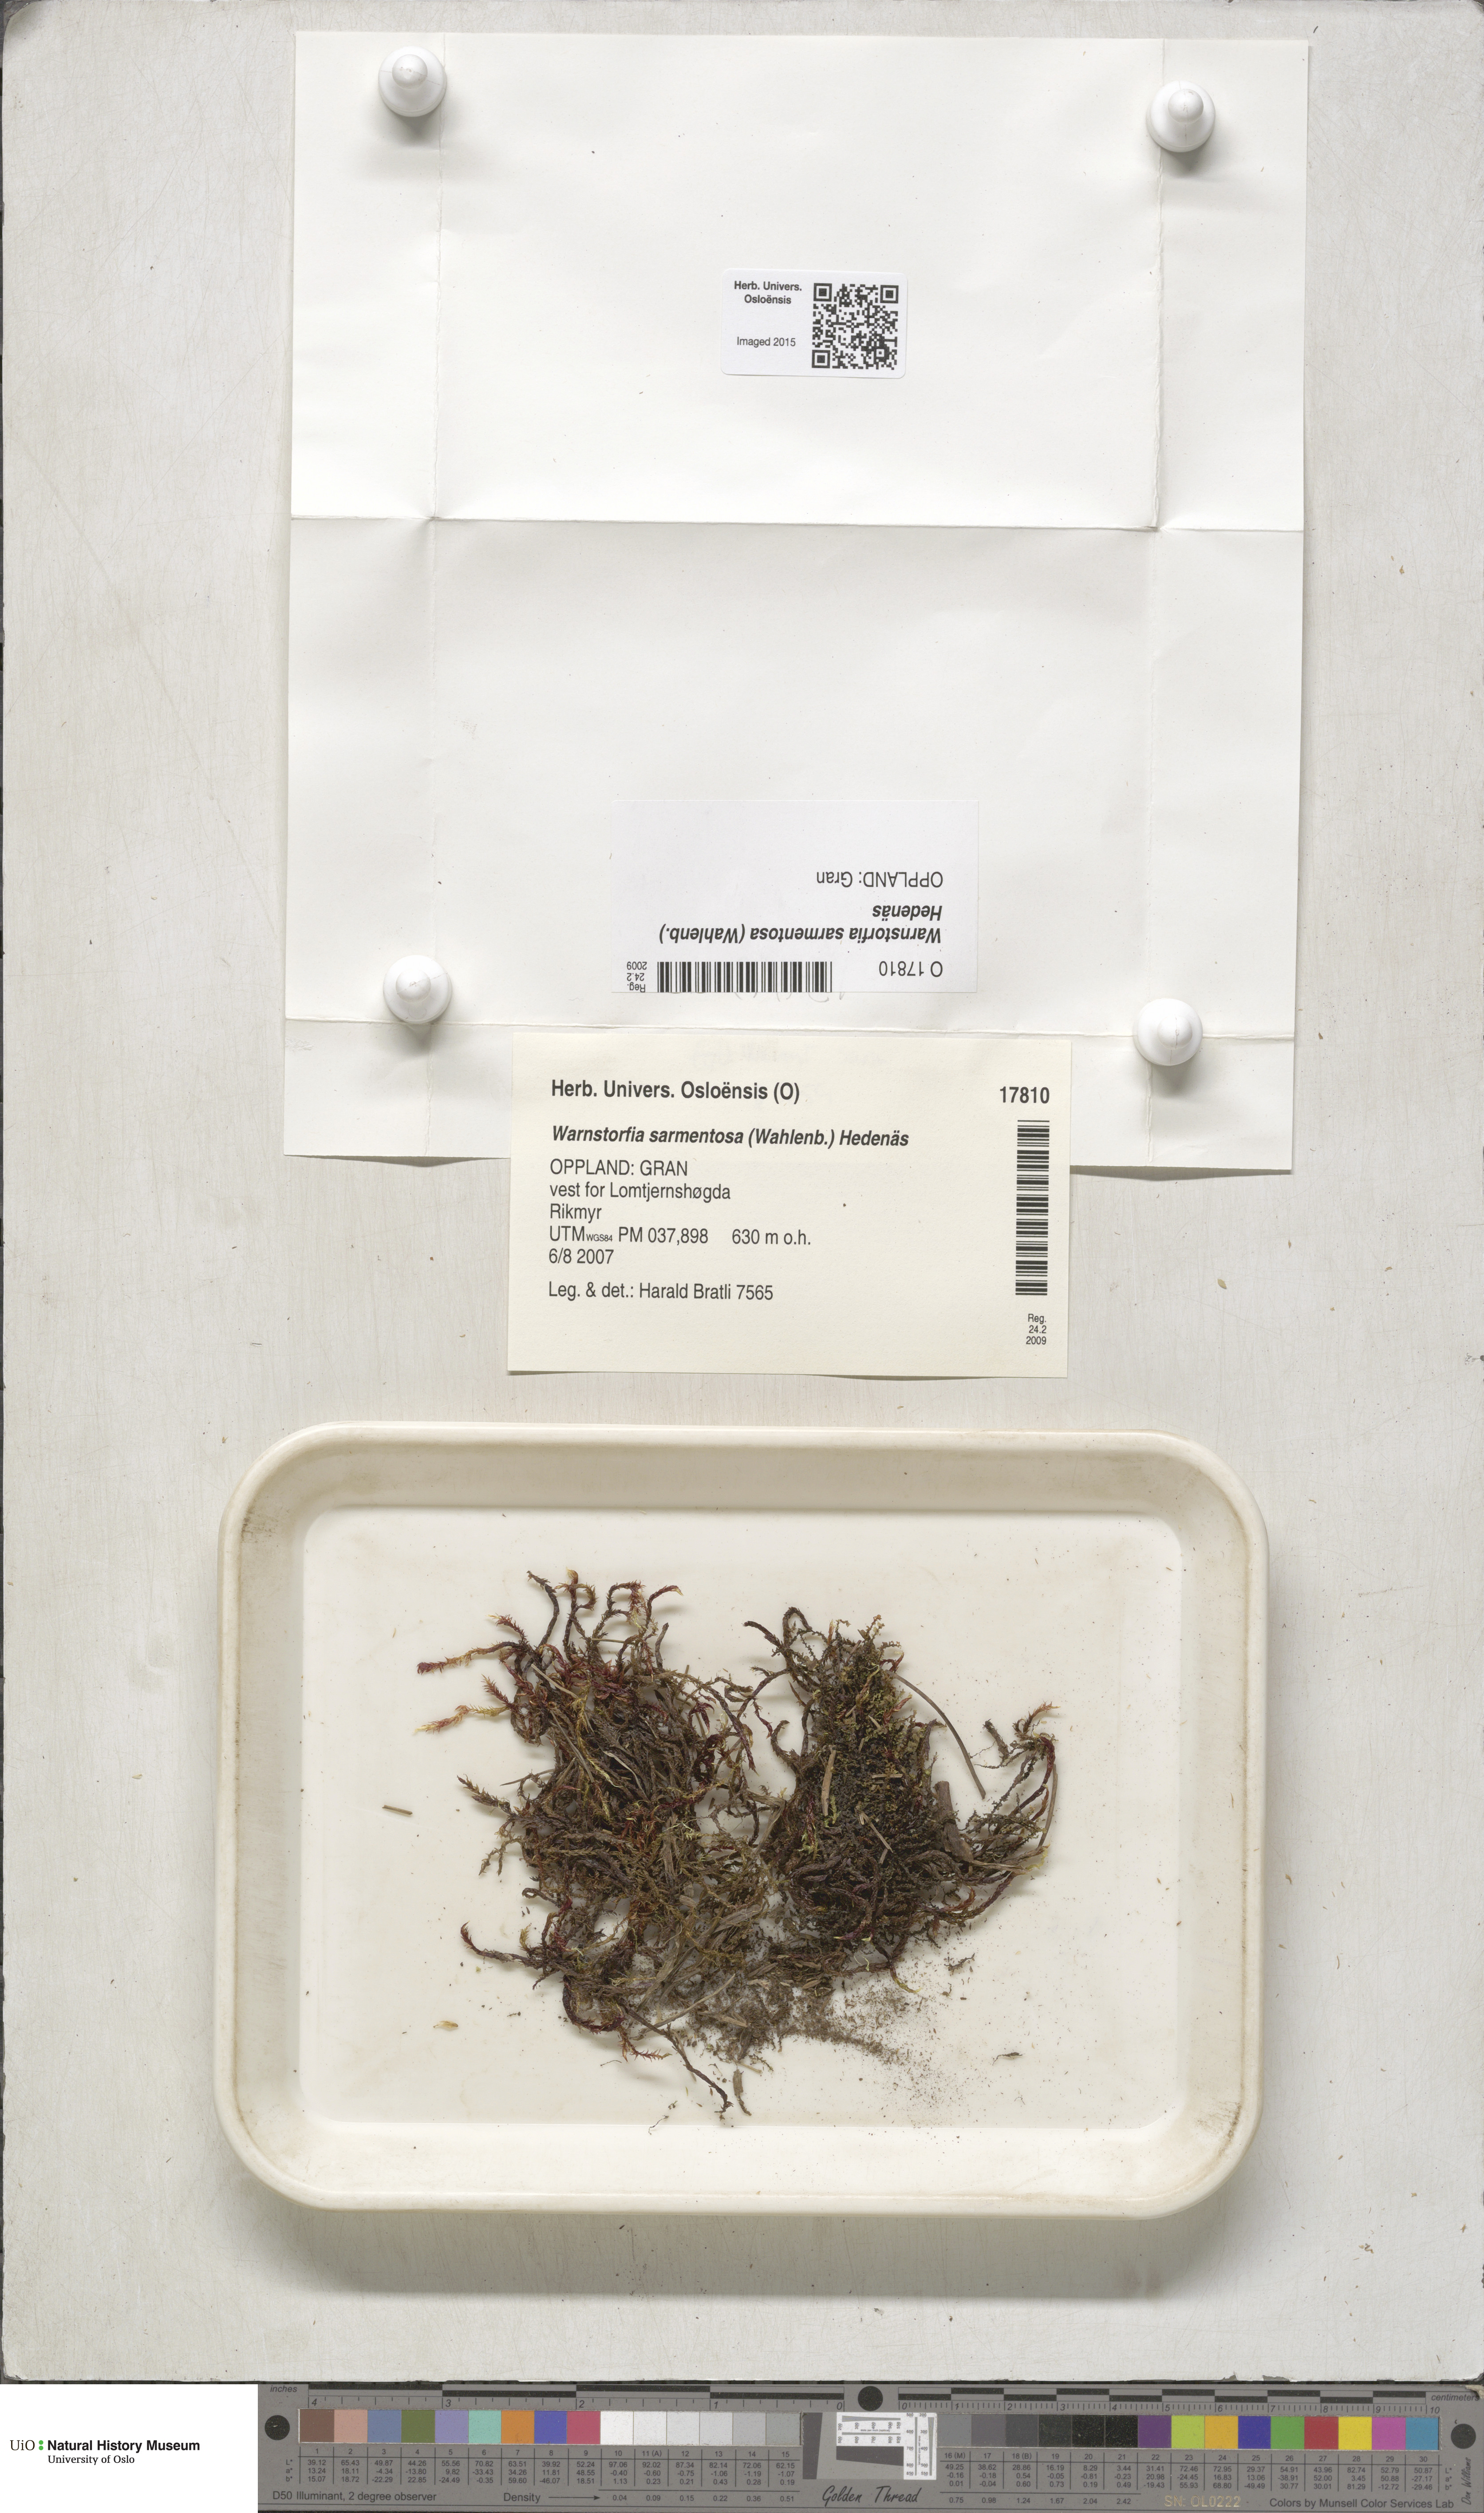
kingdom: Plantae
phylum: Bryophyta
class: Bryopsida
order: Hypnales
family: Calliergonaceae
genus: Sarmentypnum
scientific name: Sarmentypnum sarmentosum
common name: Twiggy spoon moss
